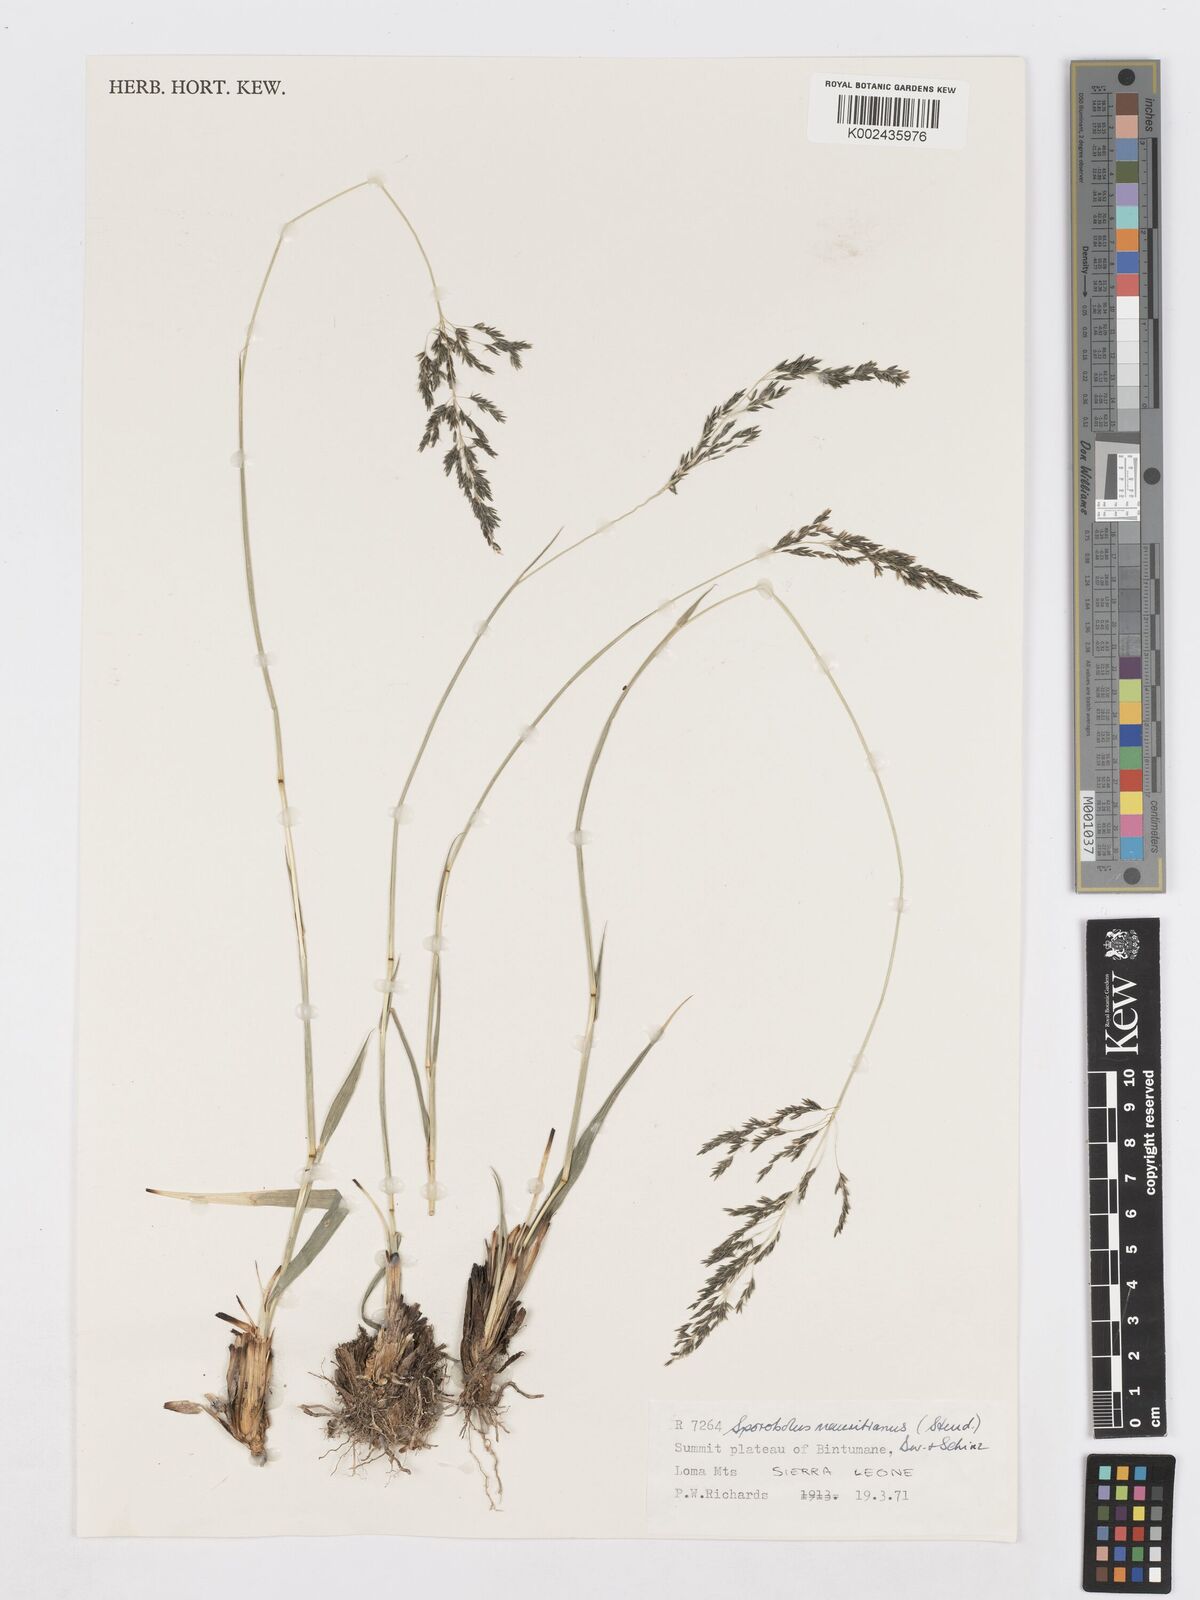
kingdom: Plantae
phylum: Tracheophyta
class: Liliopsida
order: Poales
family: Poaceae
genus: Sporobolus
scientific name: Sporobolus subulatus
